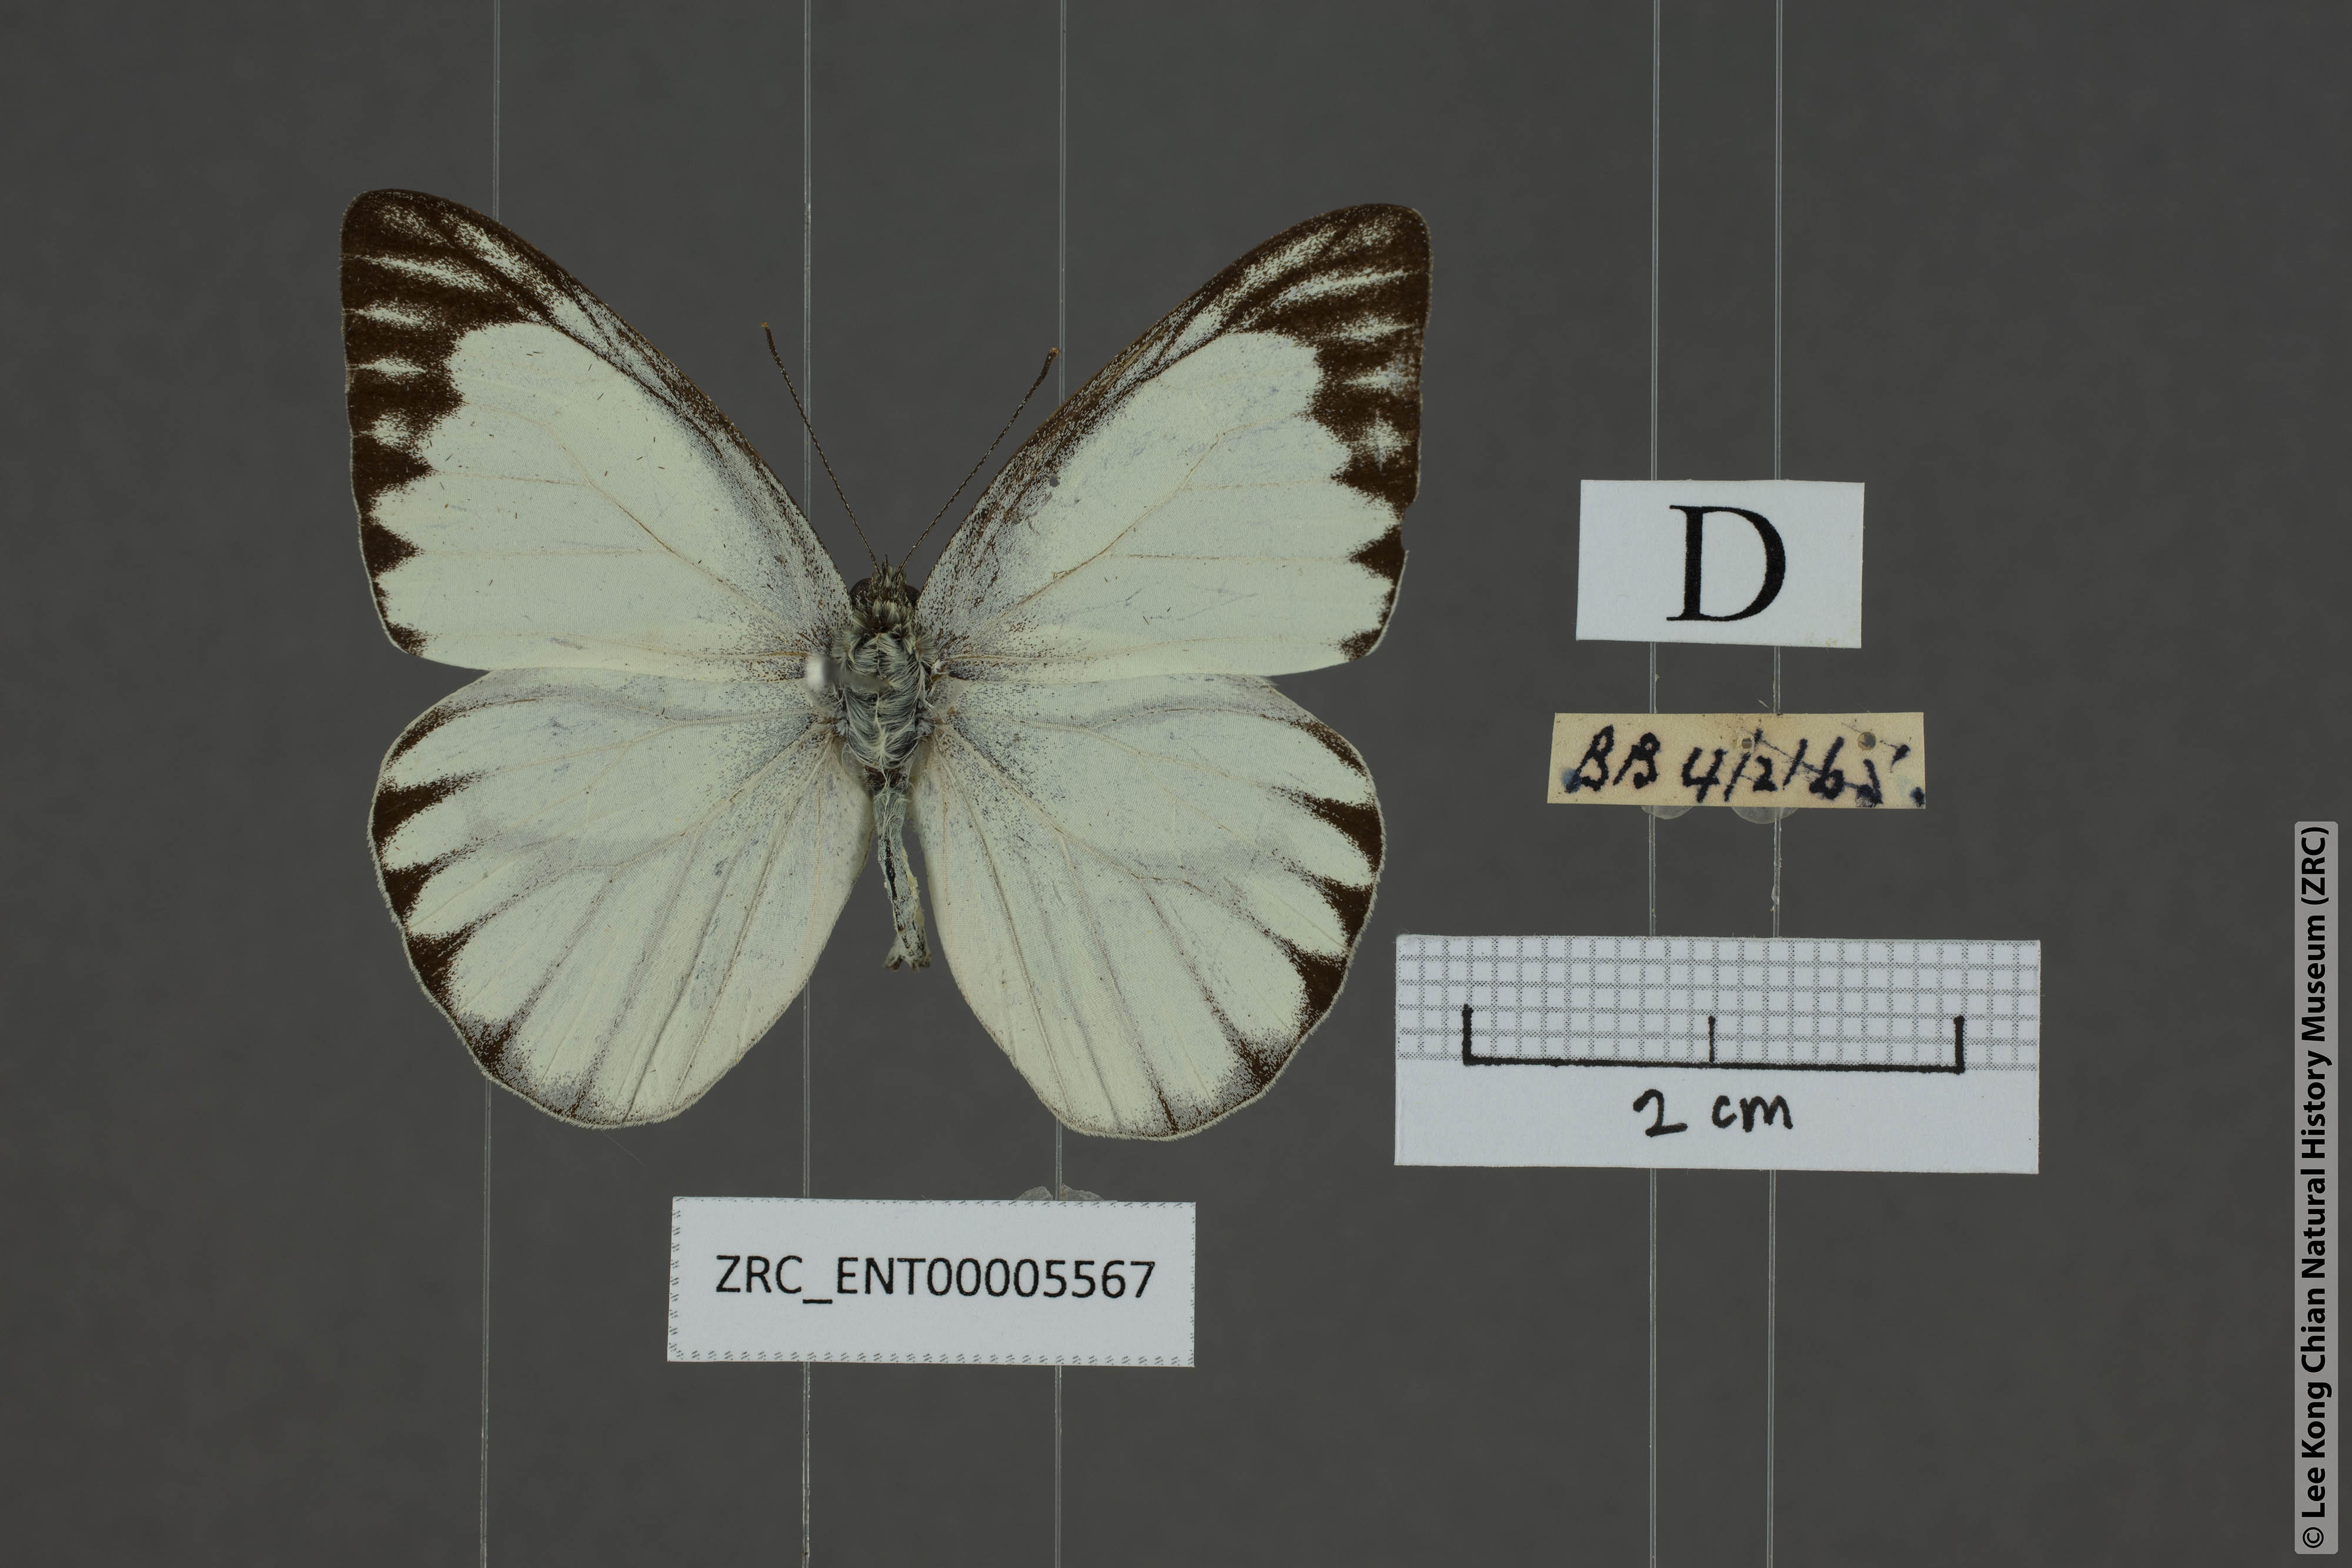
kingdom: Animalia
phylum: Arthropoda
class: Insecta
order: Lepidoptera
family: Pieridae
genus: Appias
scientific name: Appias libythea
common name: Striped albatross
